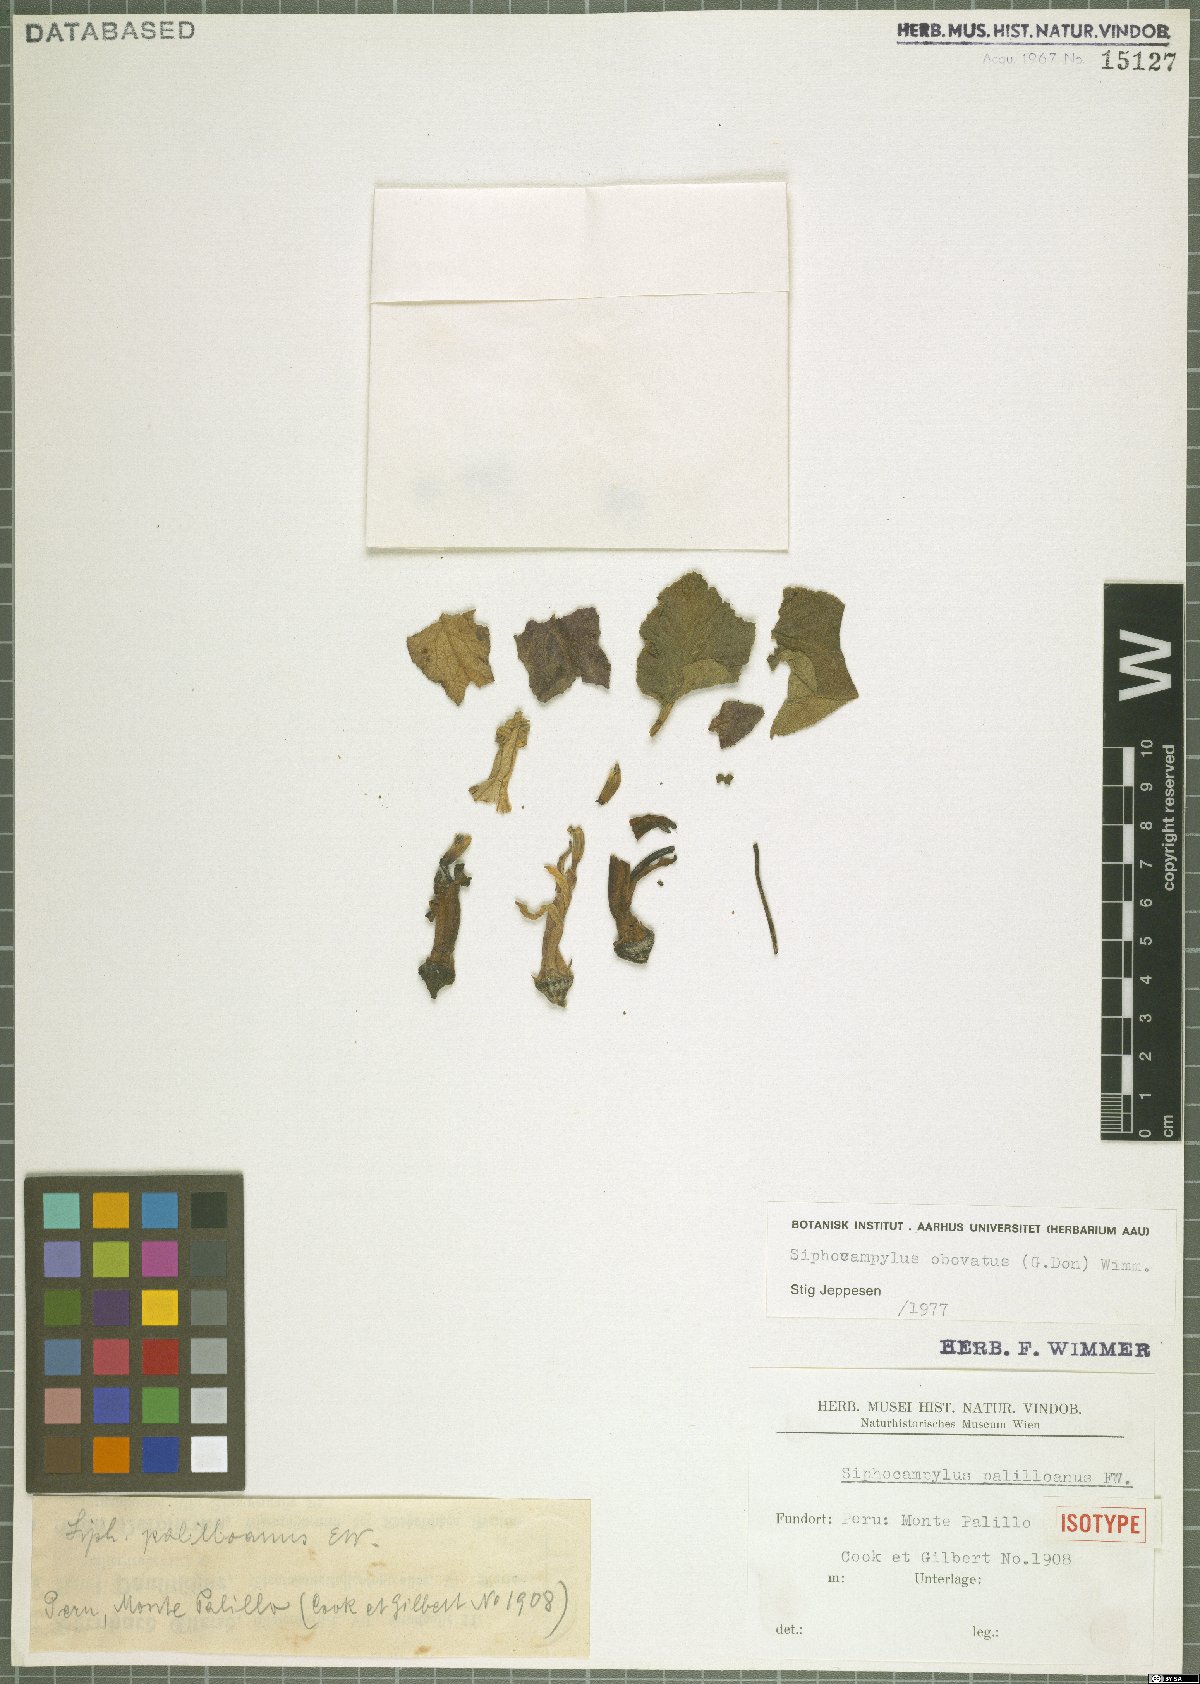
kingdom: Plantae
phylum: Tracheophyta
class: Magnoliopsida
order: Asterales
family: Campanulaceae
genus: Siphocampylus
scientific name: Siphocampylus obovatus
